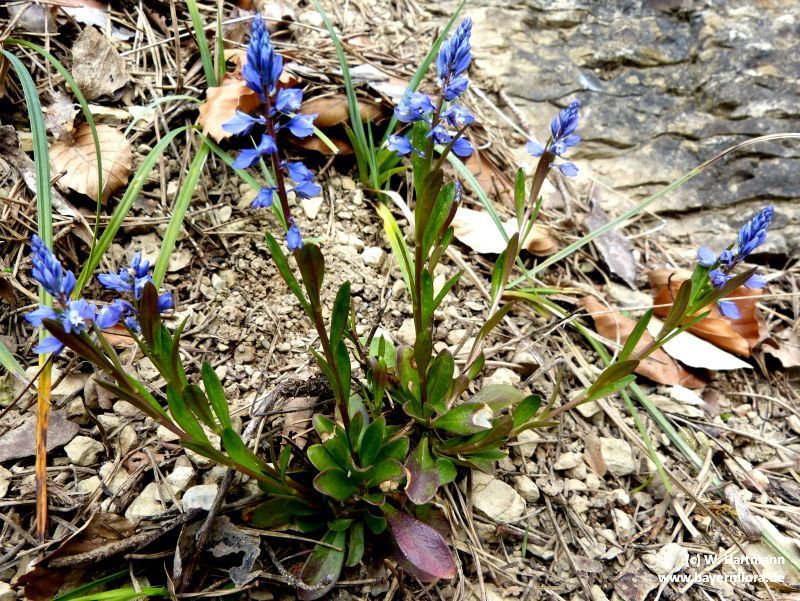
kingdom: Plantae
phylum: Tracheophyta
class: Magnoliopsida
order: Fabales
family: Polygalaceae
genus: Polygala
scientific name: Polygala amara
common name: Milkwort
